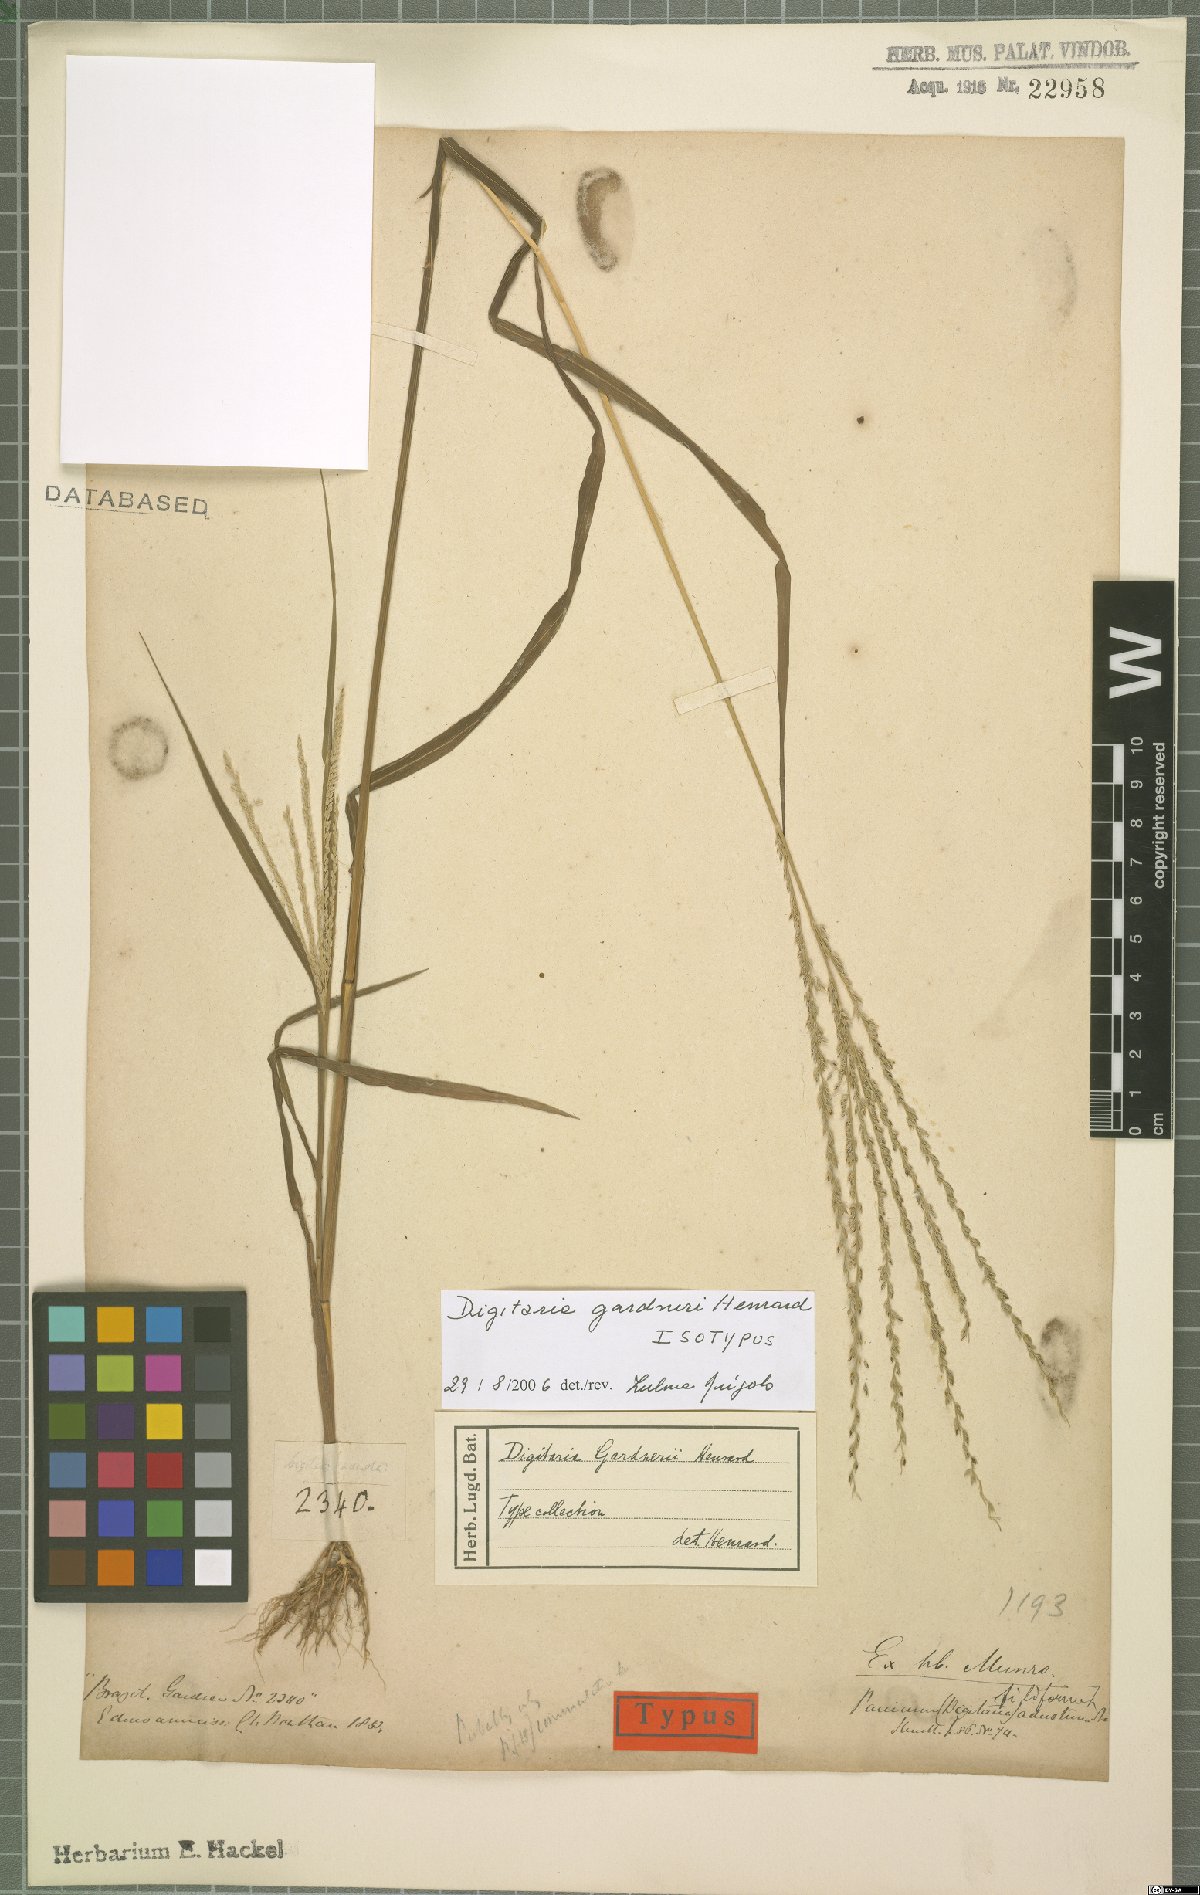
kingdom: Plantae
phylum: Tracheophyta
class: Liliopsida
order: Poales
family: Poaceae
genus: Digitaria
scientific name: Digitaria gardneri
